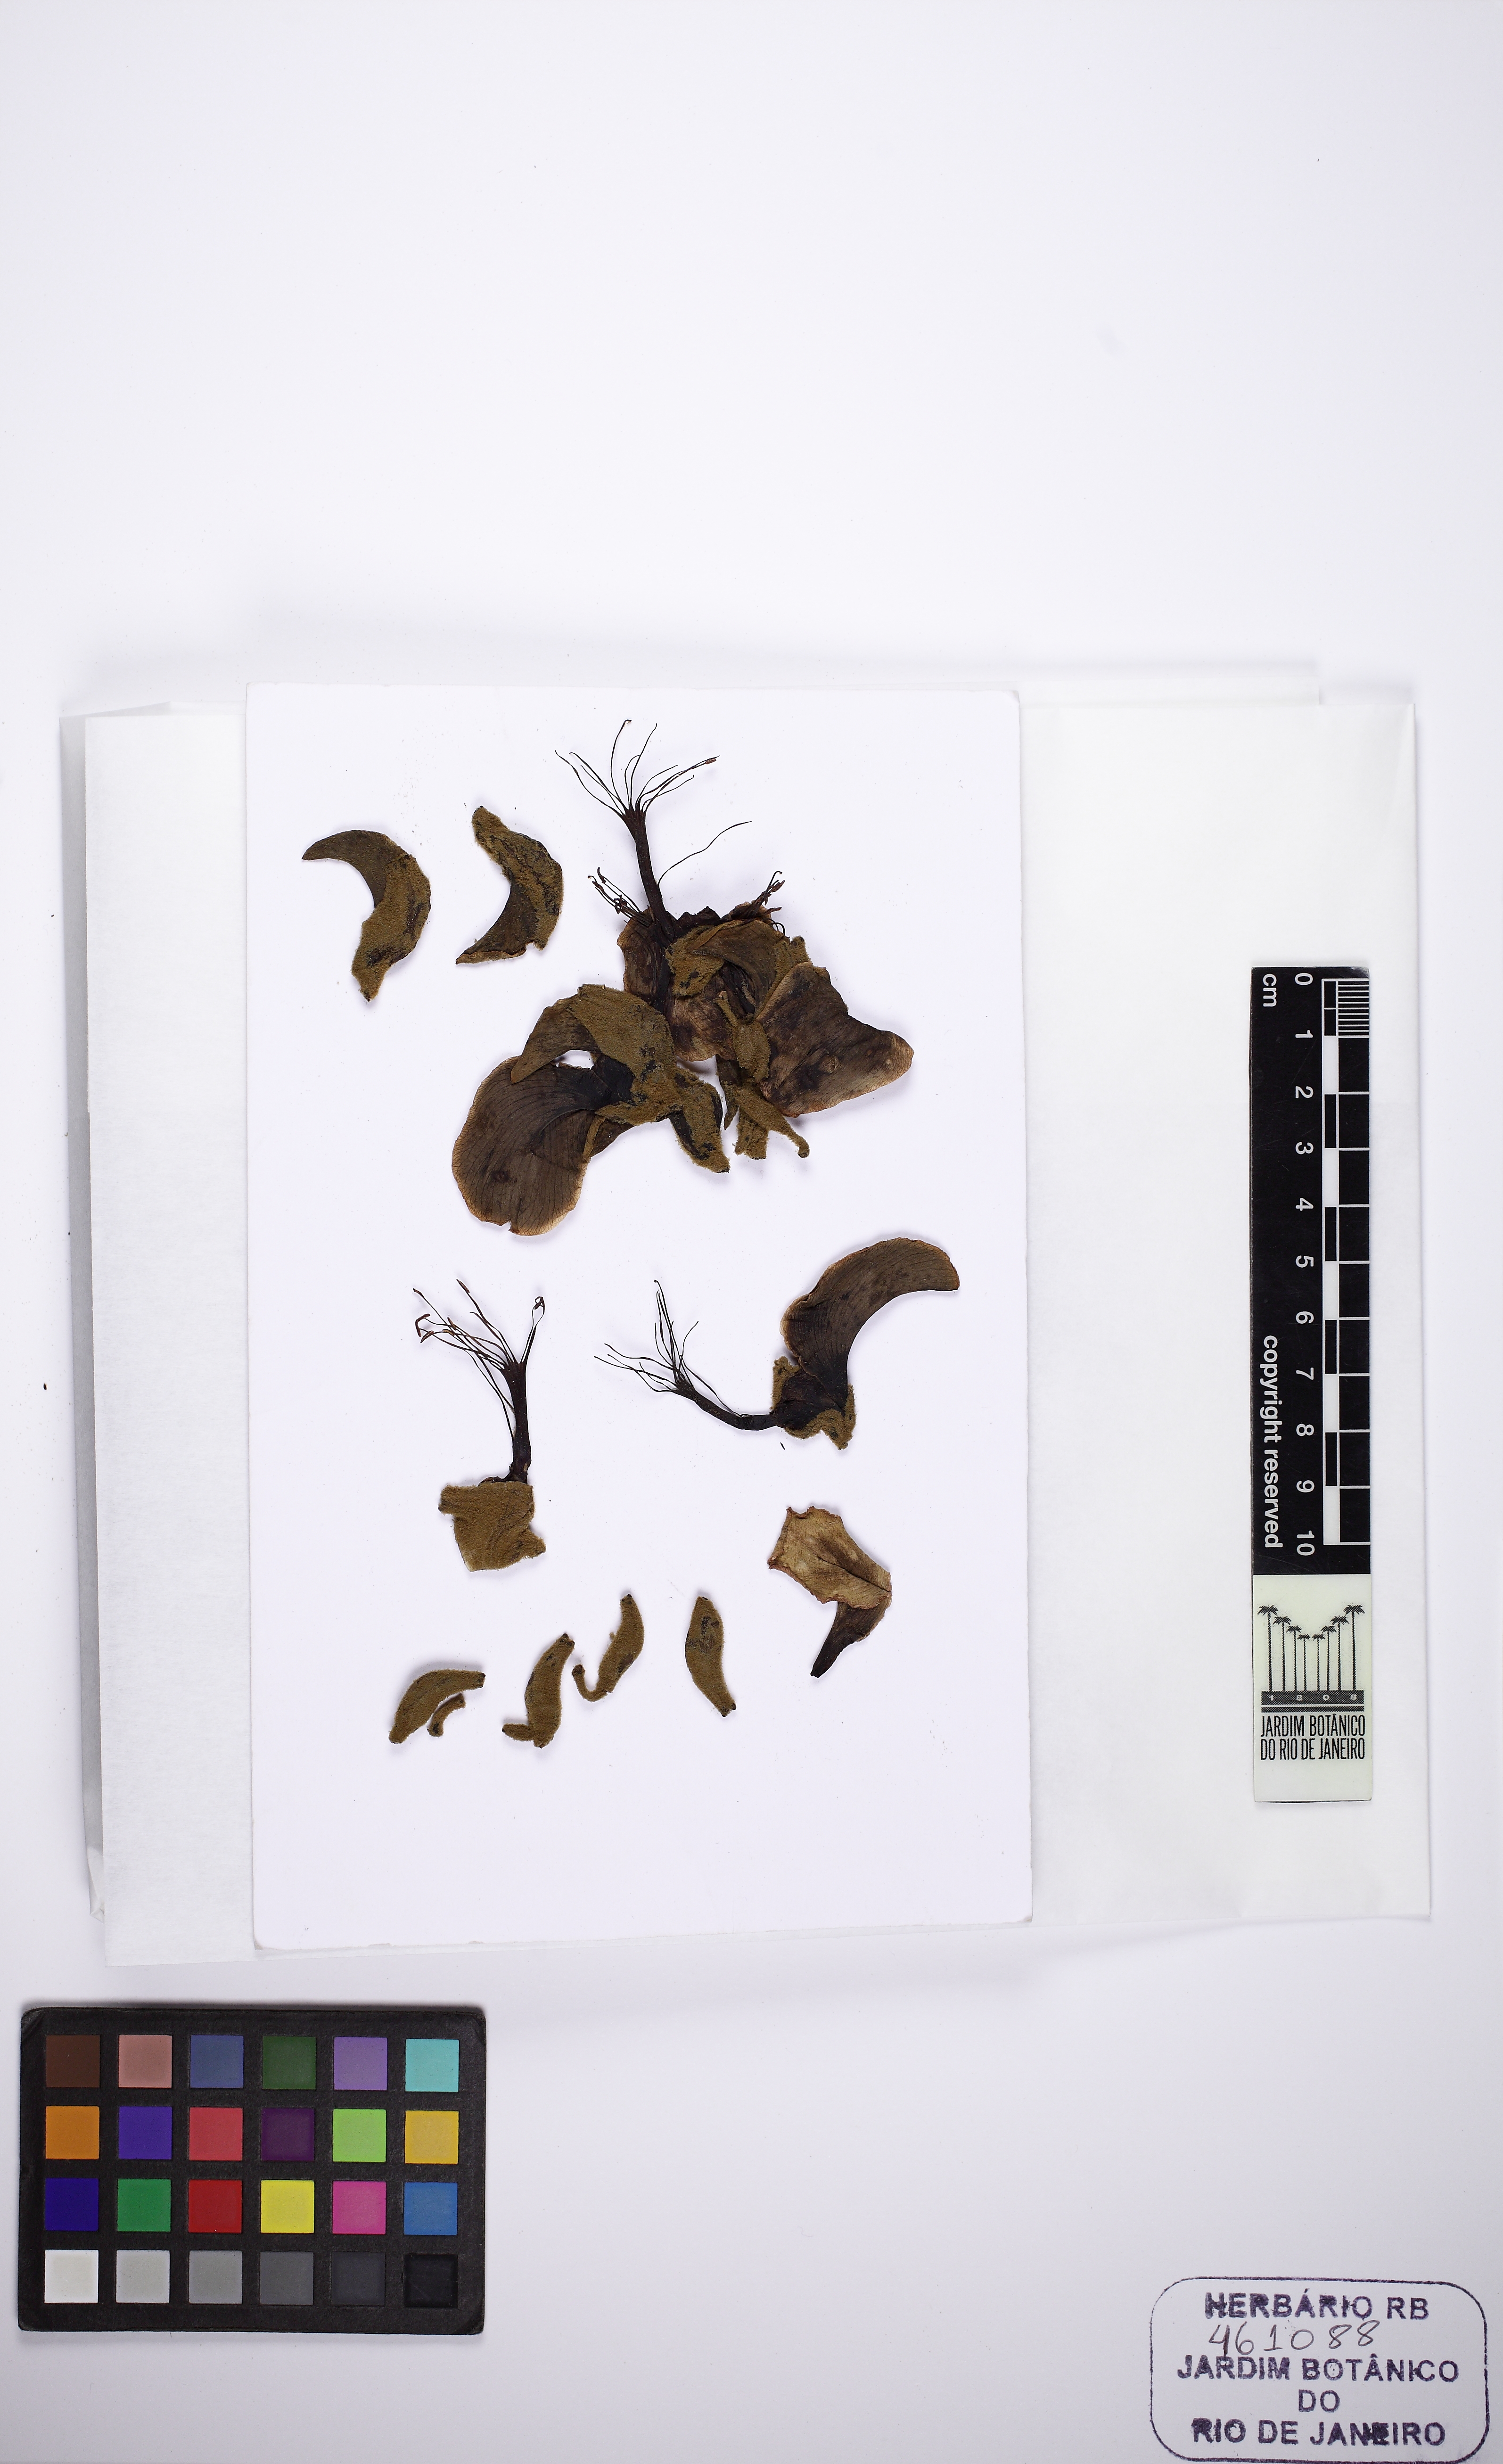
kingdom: Plantae
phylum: Tracheophyta
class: Magnoliopsida
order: Fabales
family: Fabaceae
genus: Erythrina
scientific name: Erythrina velutina
